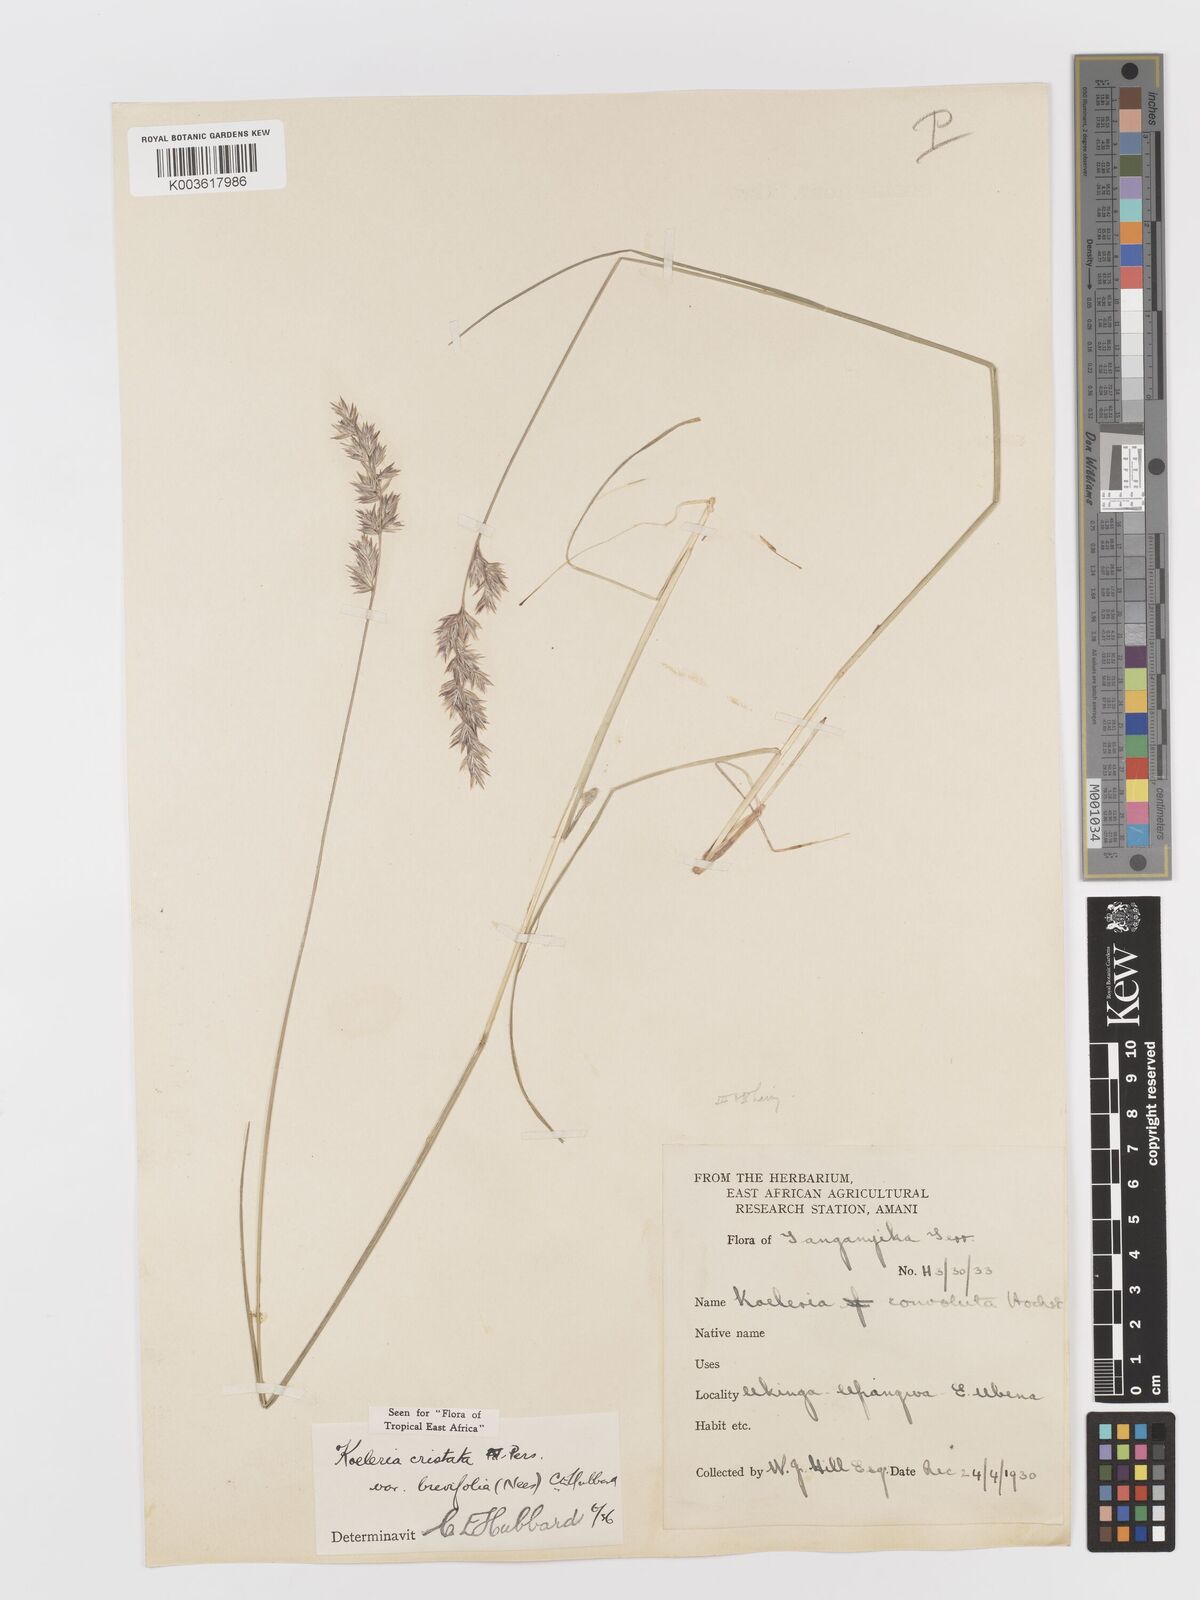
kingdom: Plantae
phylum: Tracheophyta
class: Liliopsida
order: Poales
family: Poaceae
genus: Koeleria
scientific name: Koeleria capensis
